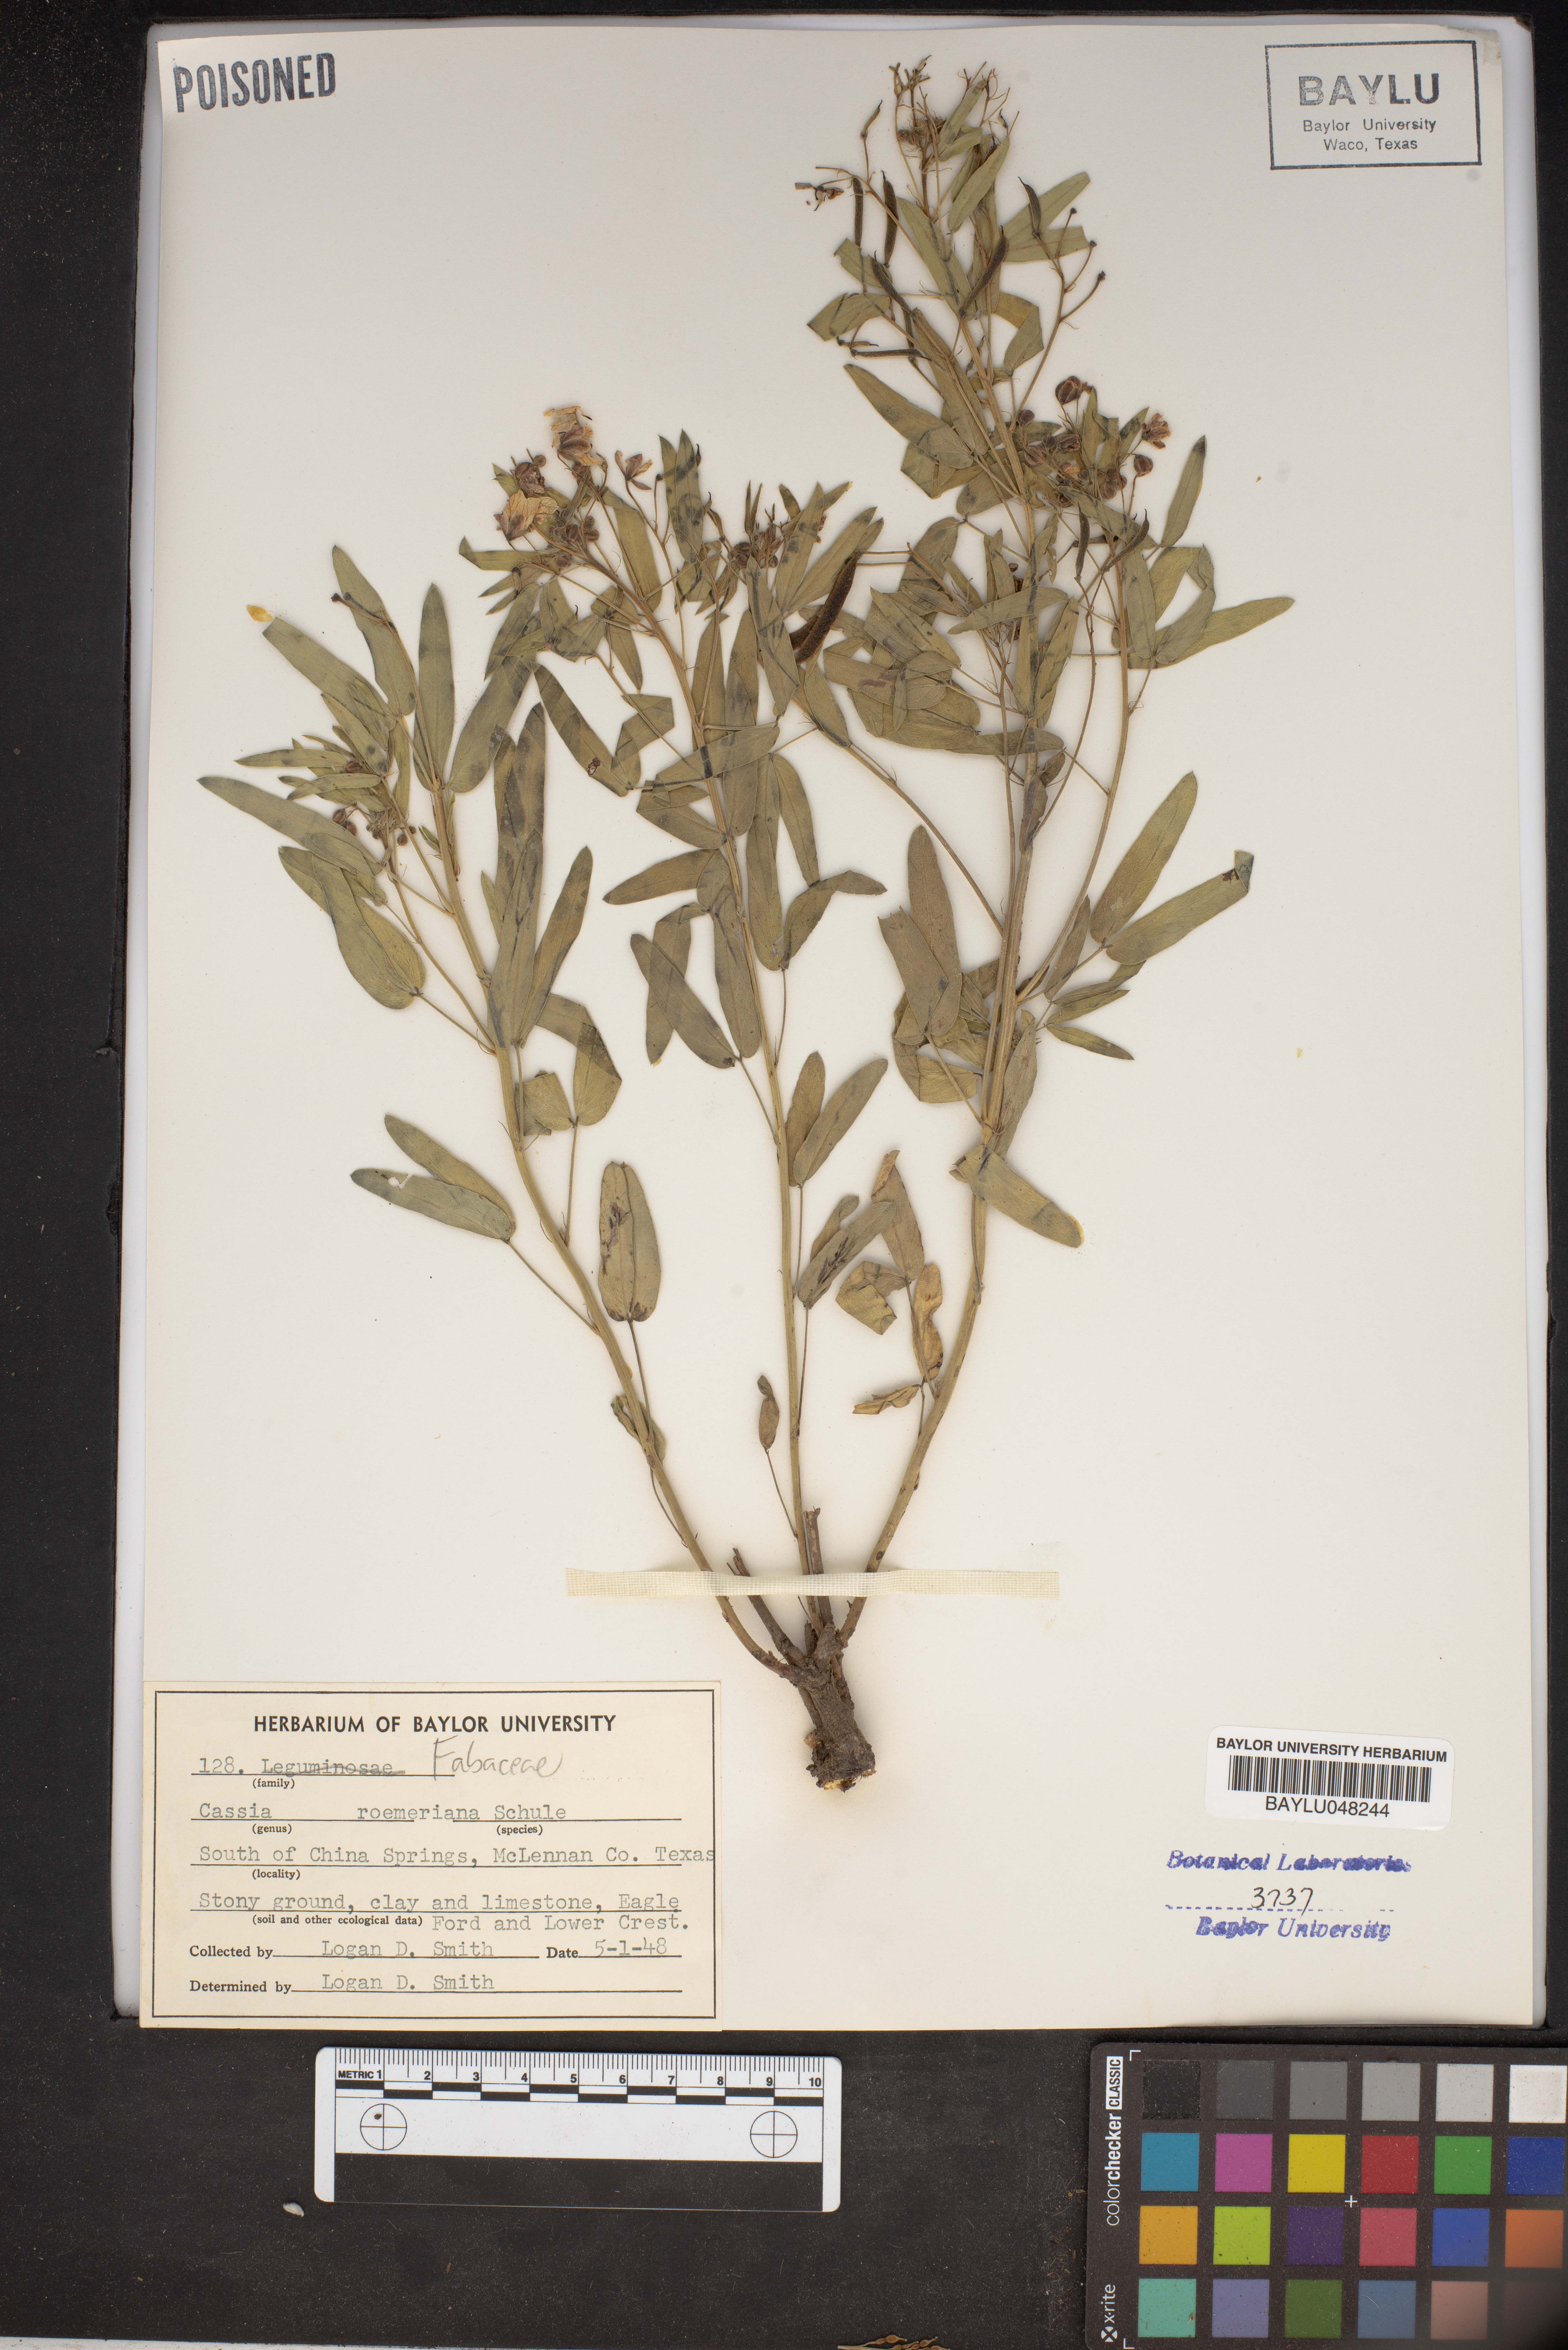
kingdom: Plantae
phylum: Tracheophyta
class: Magnoliopsida
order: Fabales
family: Fabaceae
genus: Senna
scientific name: Senna roemeriana
